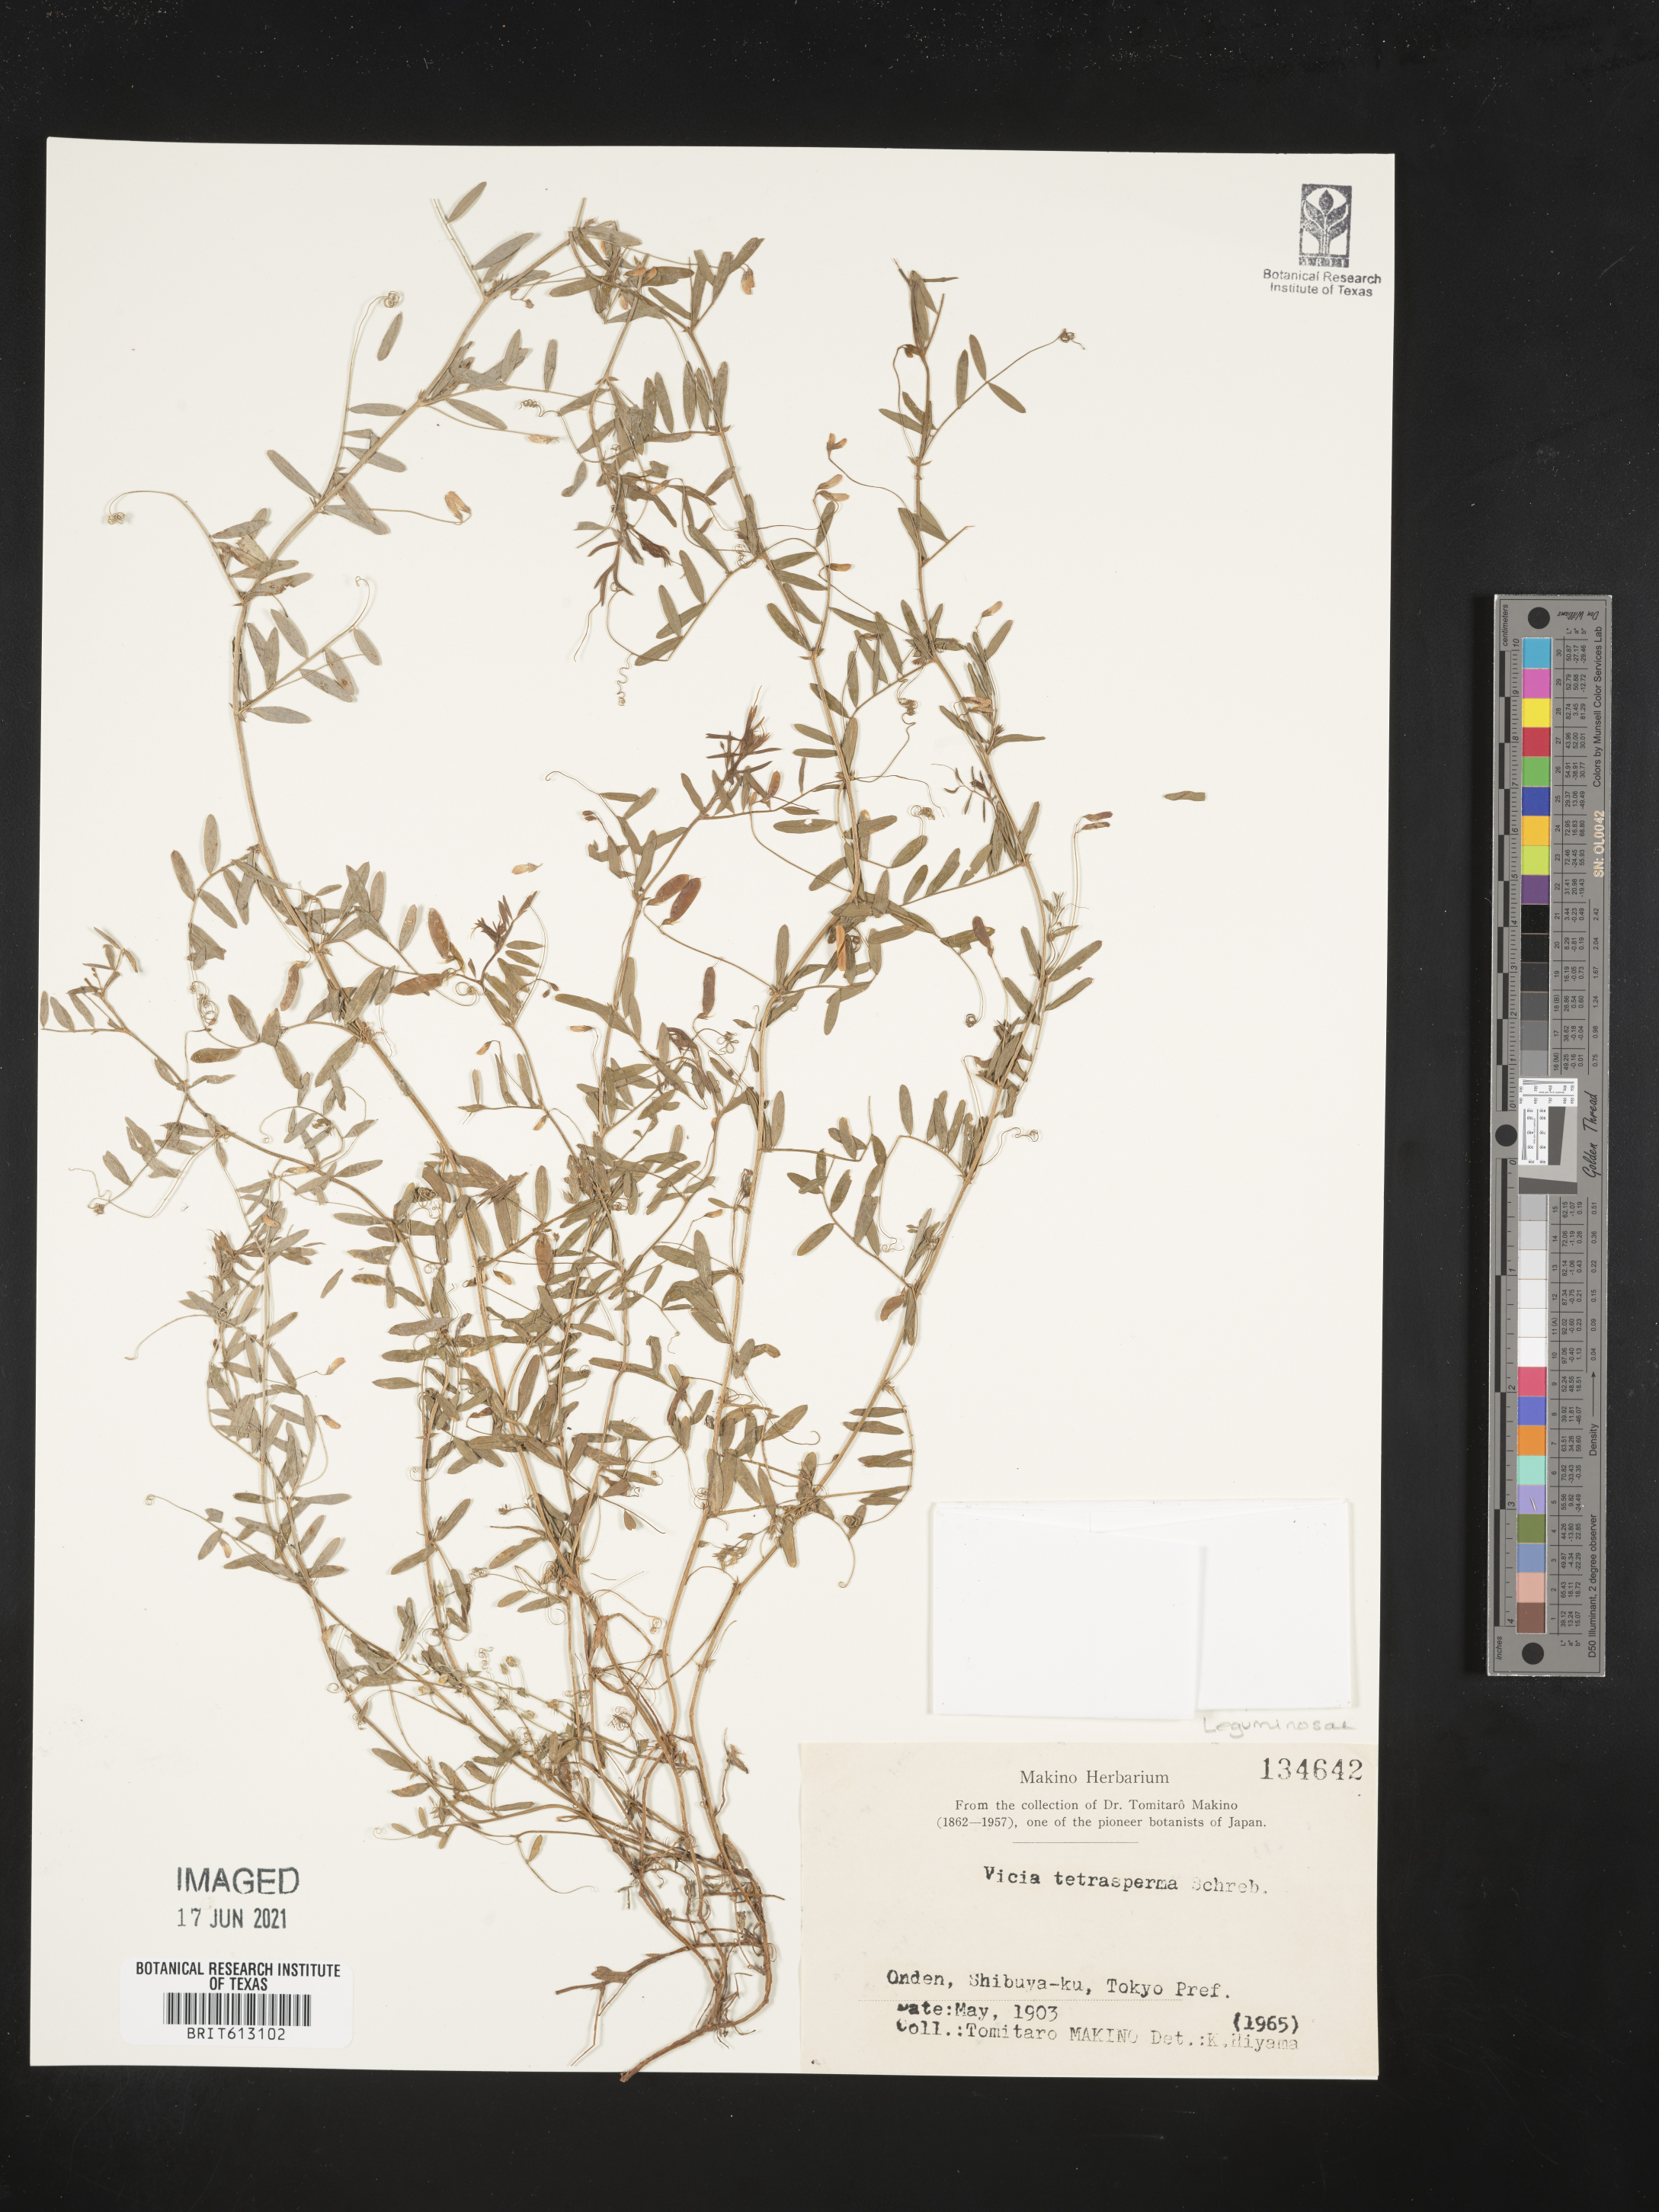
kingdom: Plantae
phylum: Tracheophyta
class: Magnoliopsida
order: Fabales
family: Fabaceae
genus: Vicia
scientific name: Vicia tetrasperma
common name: Smooth tare
